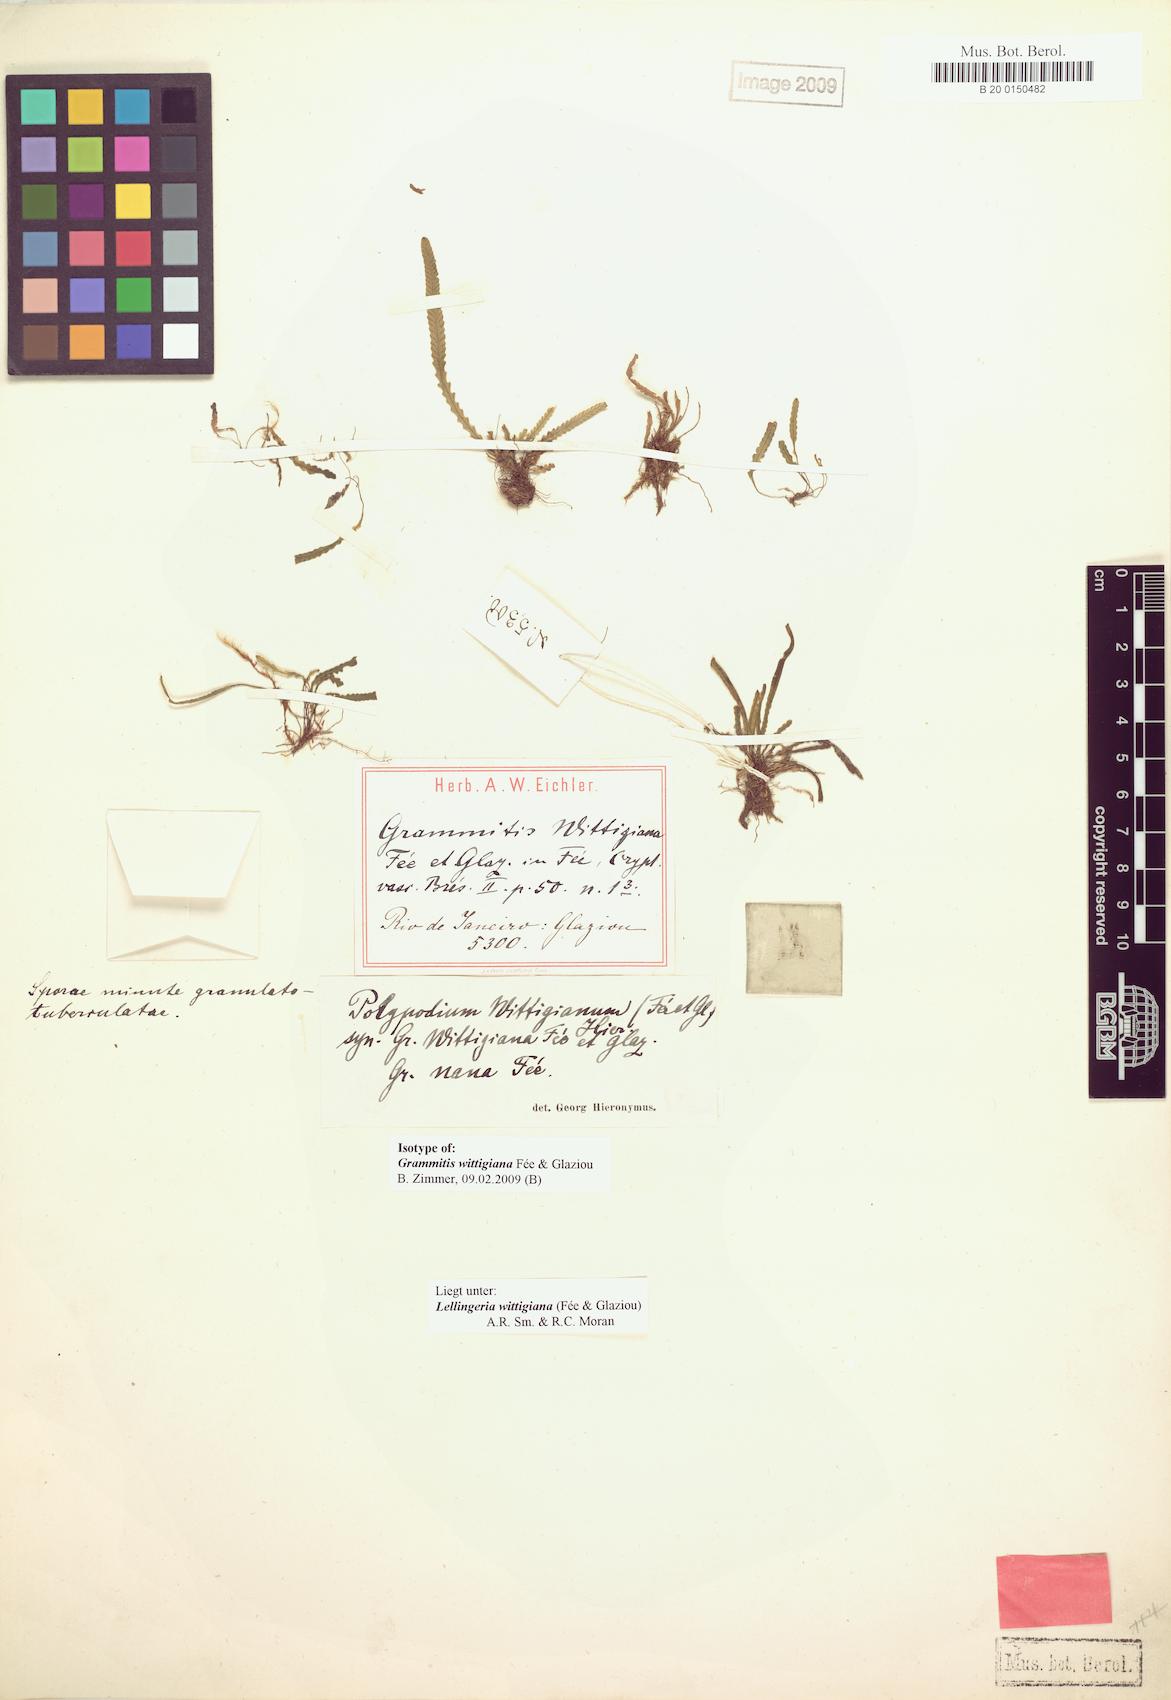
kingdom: Plantae
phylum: Tracheophyta
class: Polypodiopsida
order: Polypodiales
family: Polypodiaceae
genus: Stenogrammitis
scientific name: Stenogrammitis wittigiana
